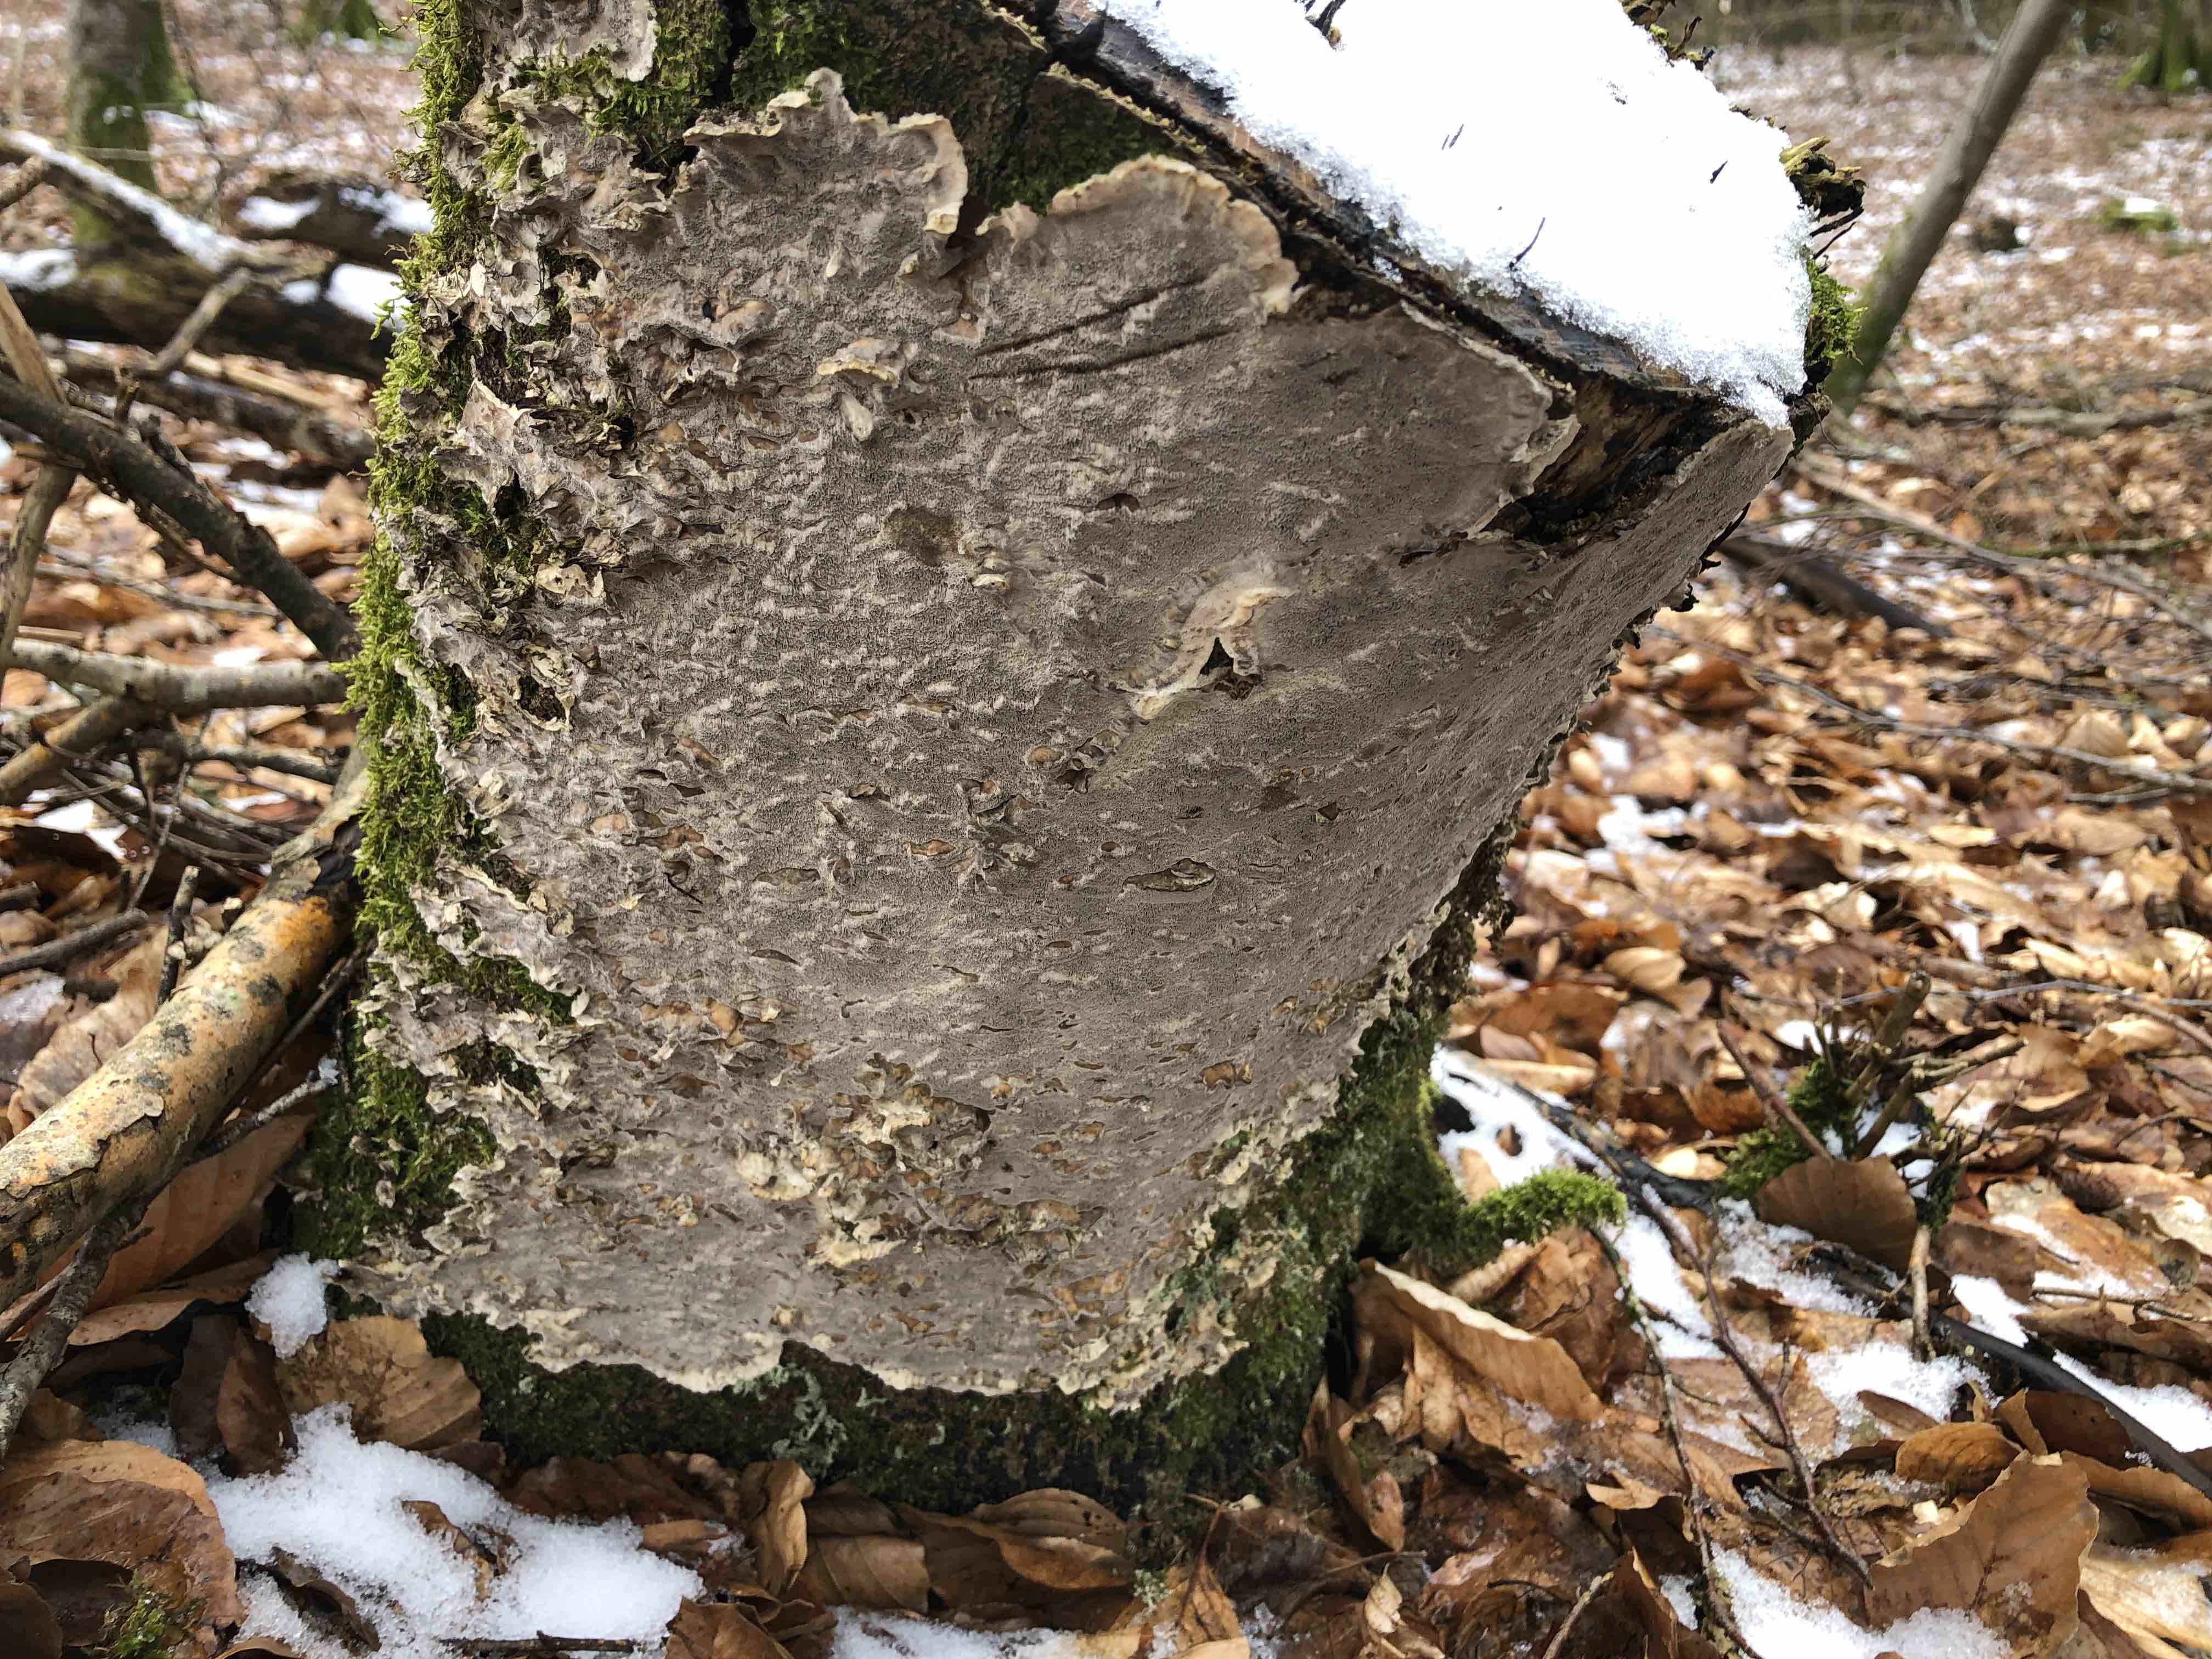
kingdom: Fungi
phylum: Basidiomycota
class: Agaricomycetes
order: Polyporales
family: Phanerochaetaceae
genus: Bjerkandera
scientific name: Bjerkandera adusta
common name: sveden sodporesvamp
